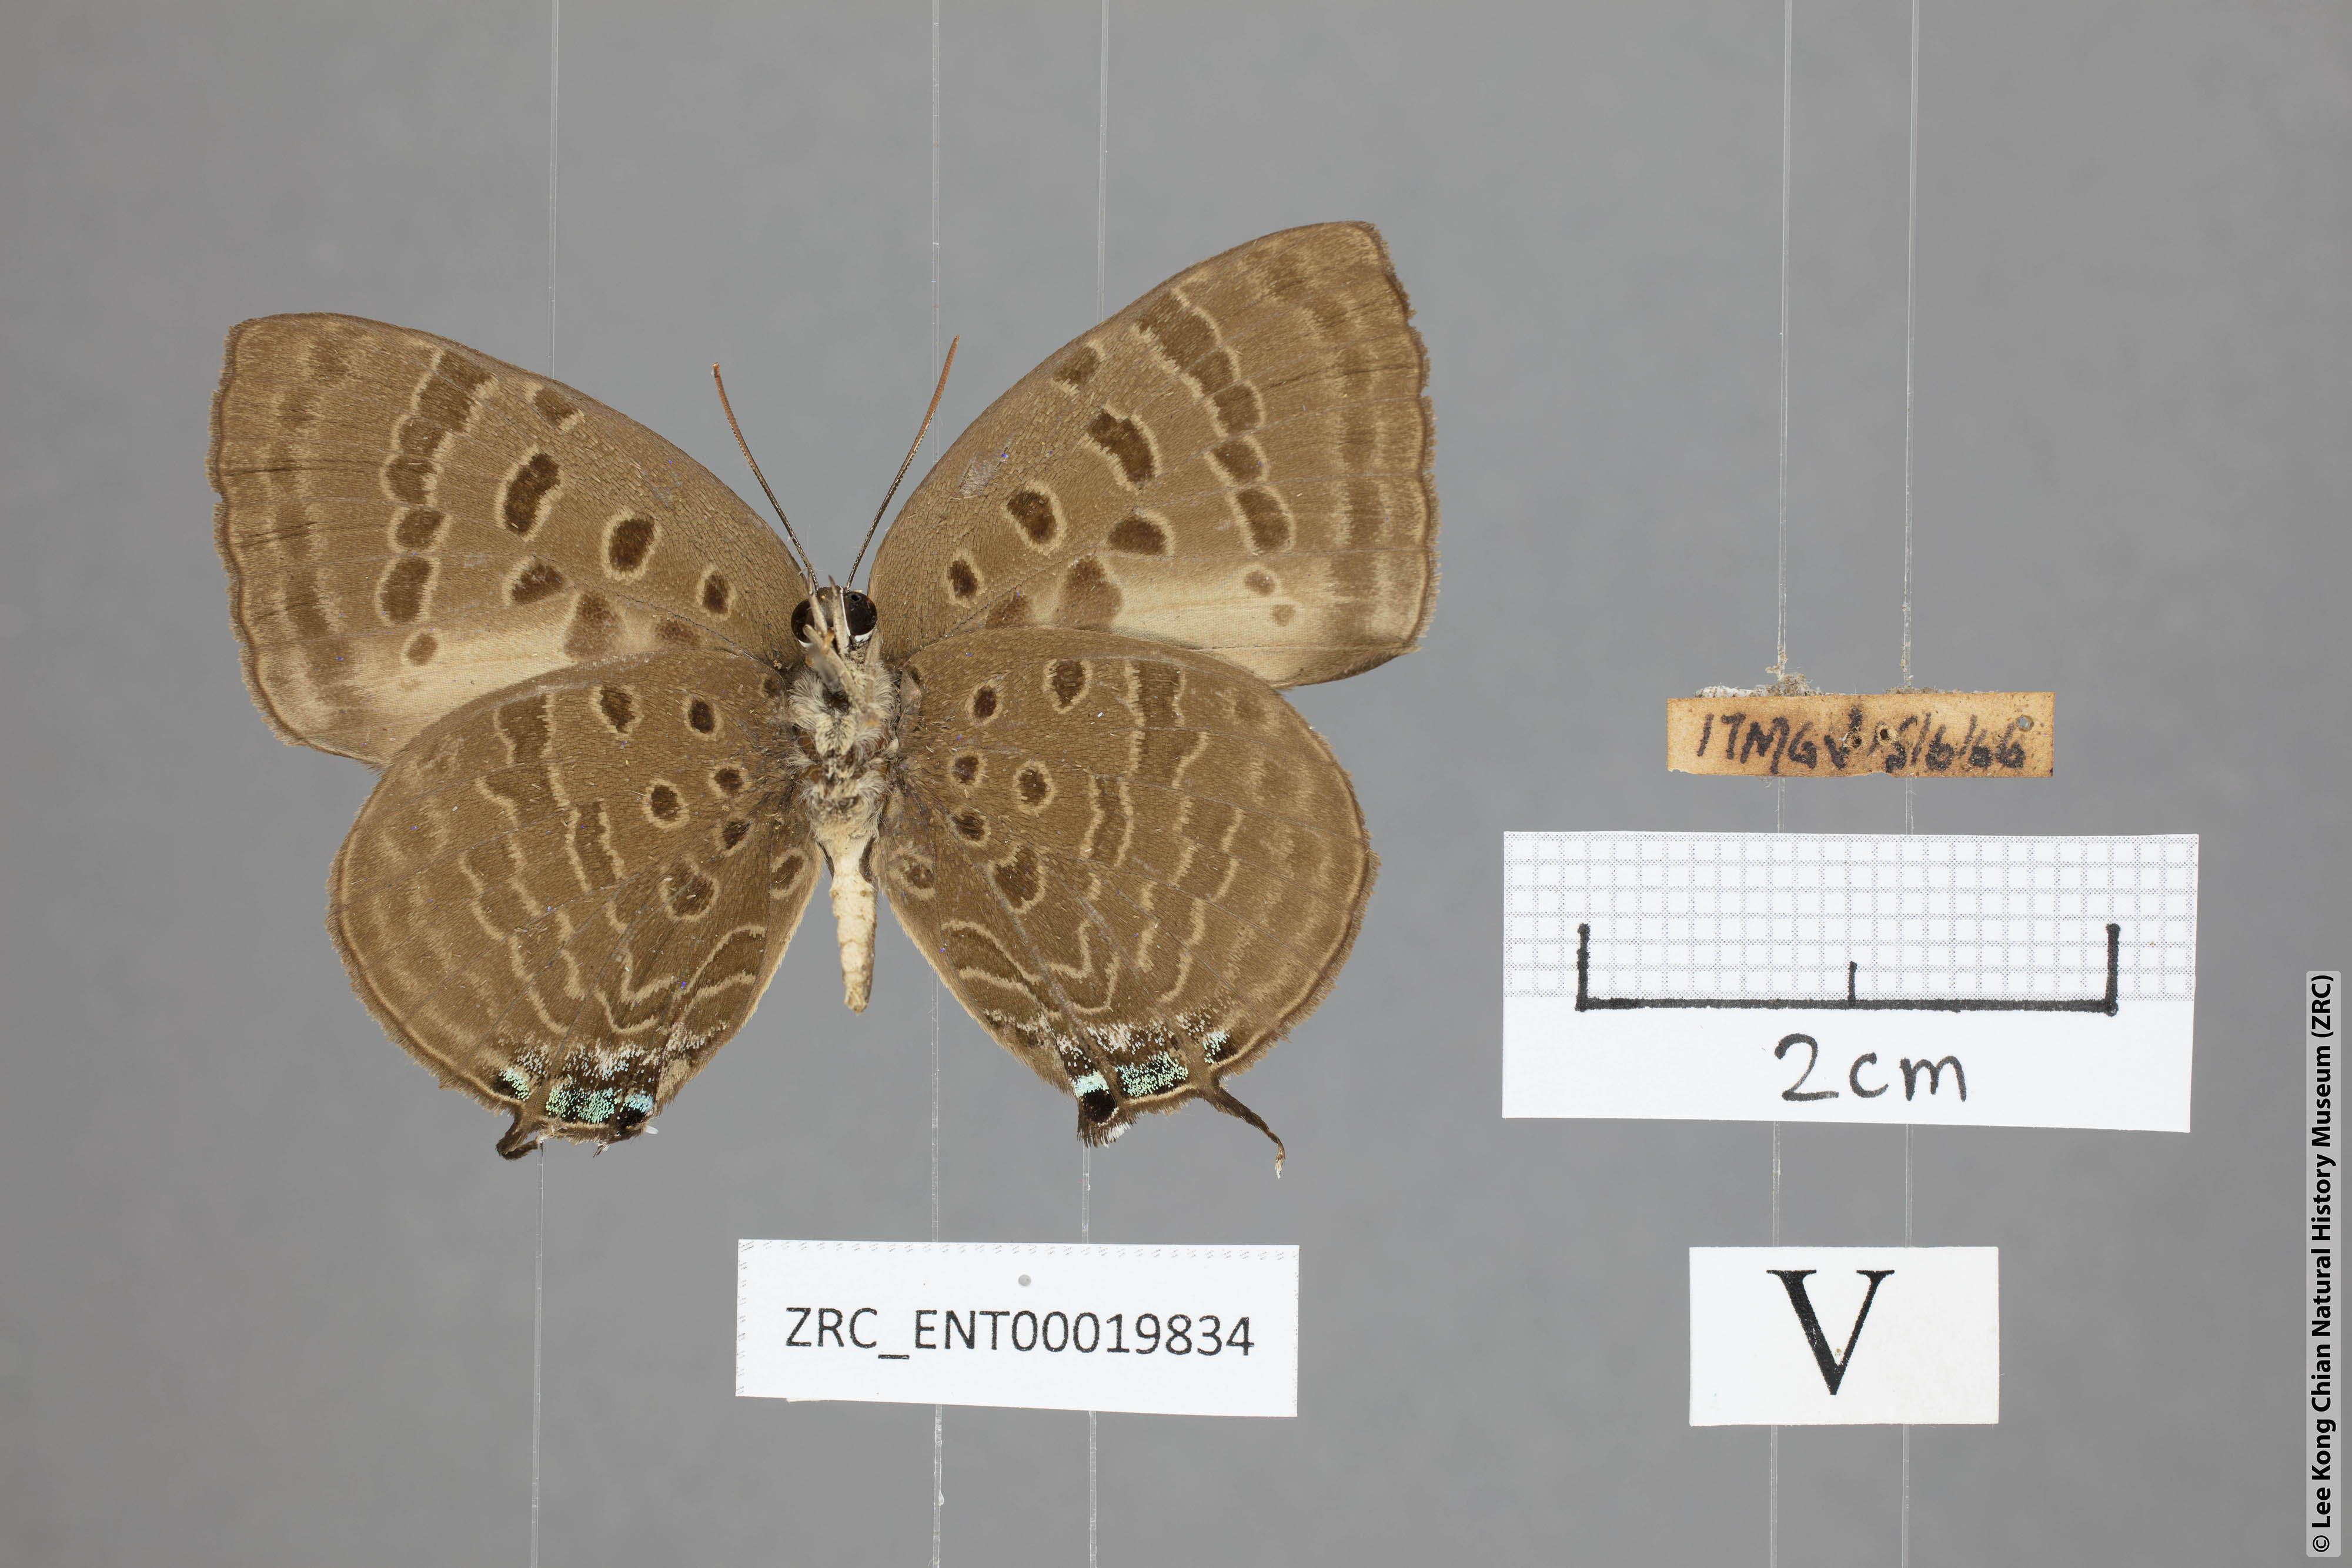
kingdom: Animalia
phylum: Arthropoda
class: Insecta
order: Lepidoptera
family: Lycaenidae
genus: Arhopala
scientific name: Arhopala
